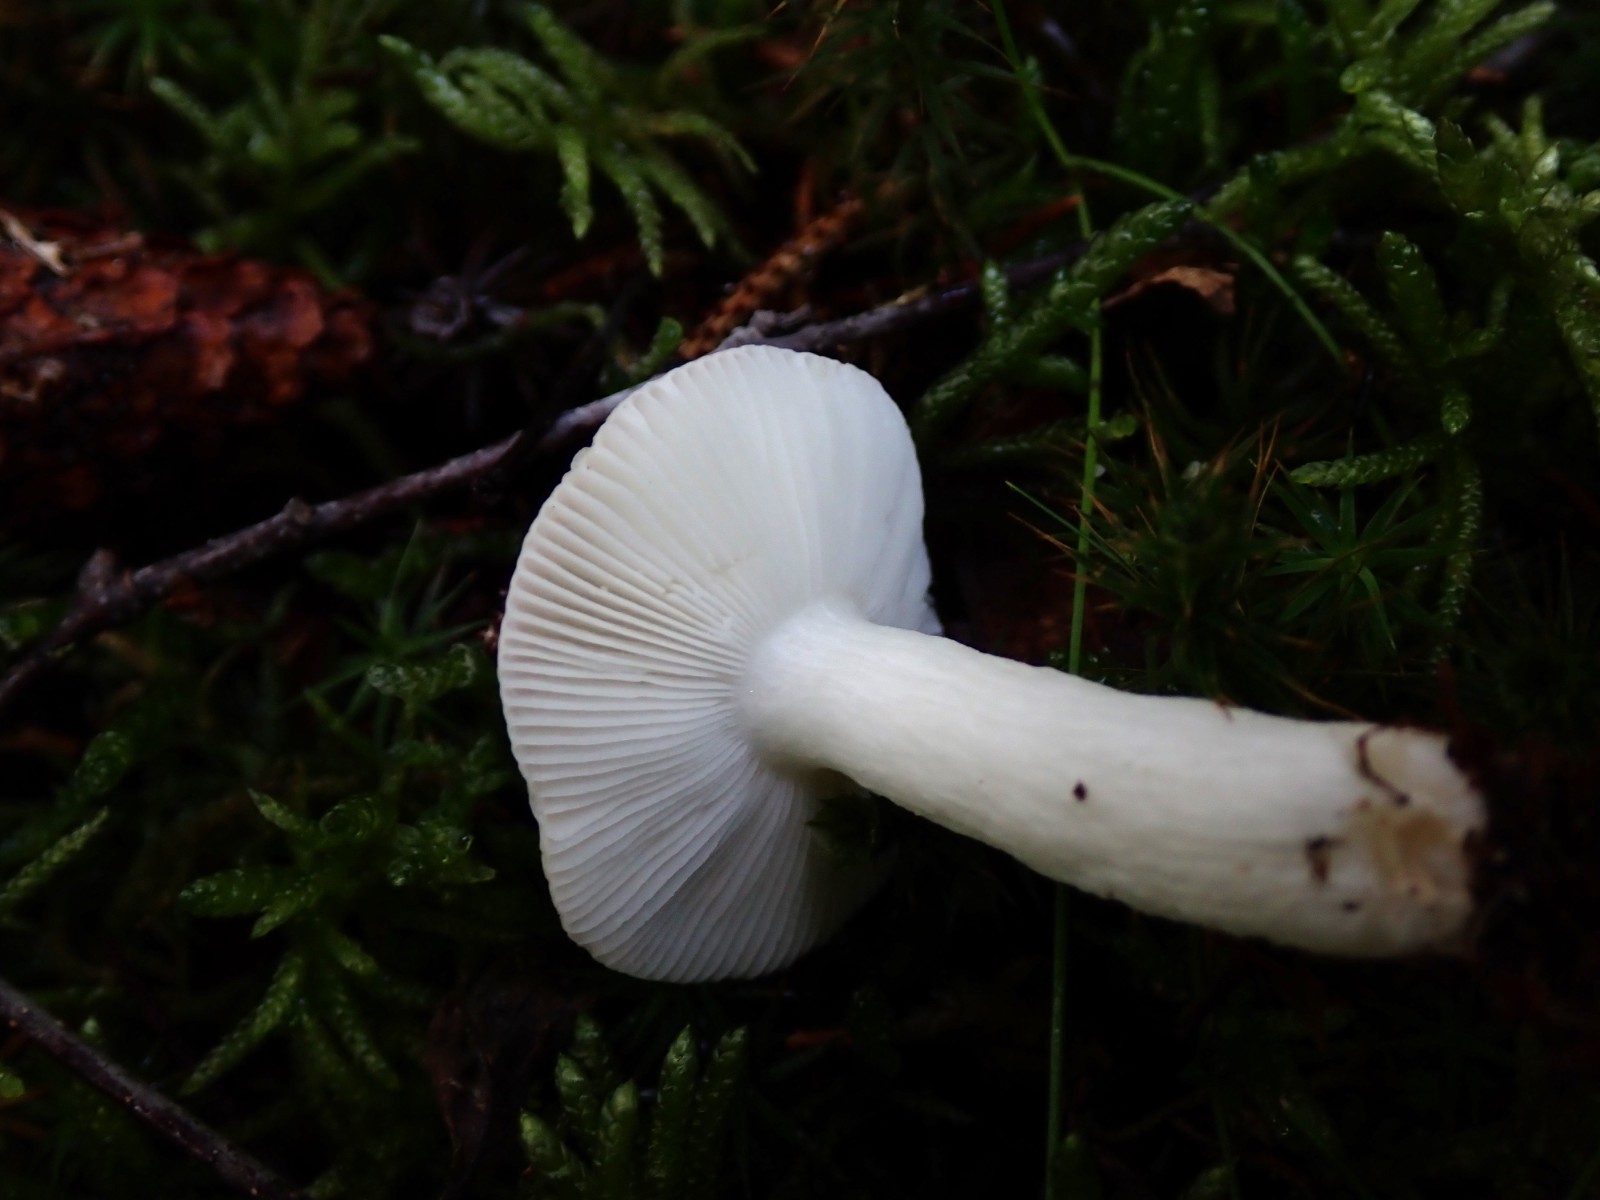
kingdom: Fungi
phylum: Basidiomycota
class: Agaricomycetes
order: Russulales
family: Russulaceae
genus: Russula
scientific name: Russula betularum
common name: bleg gift-skørhat
